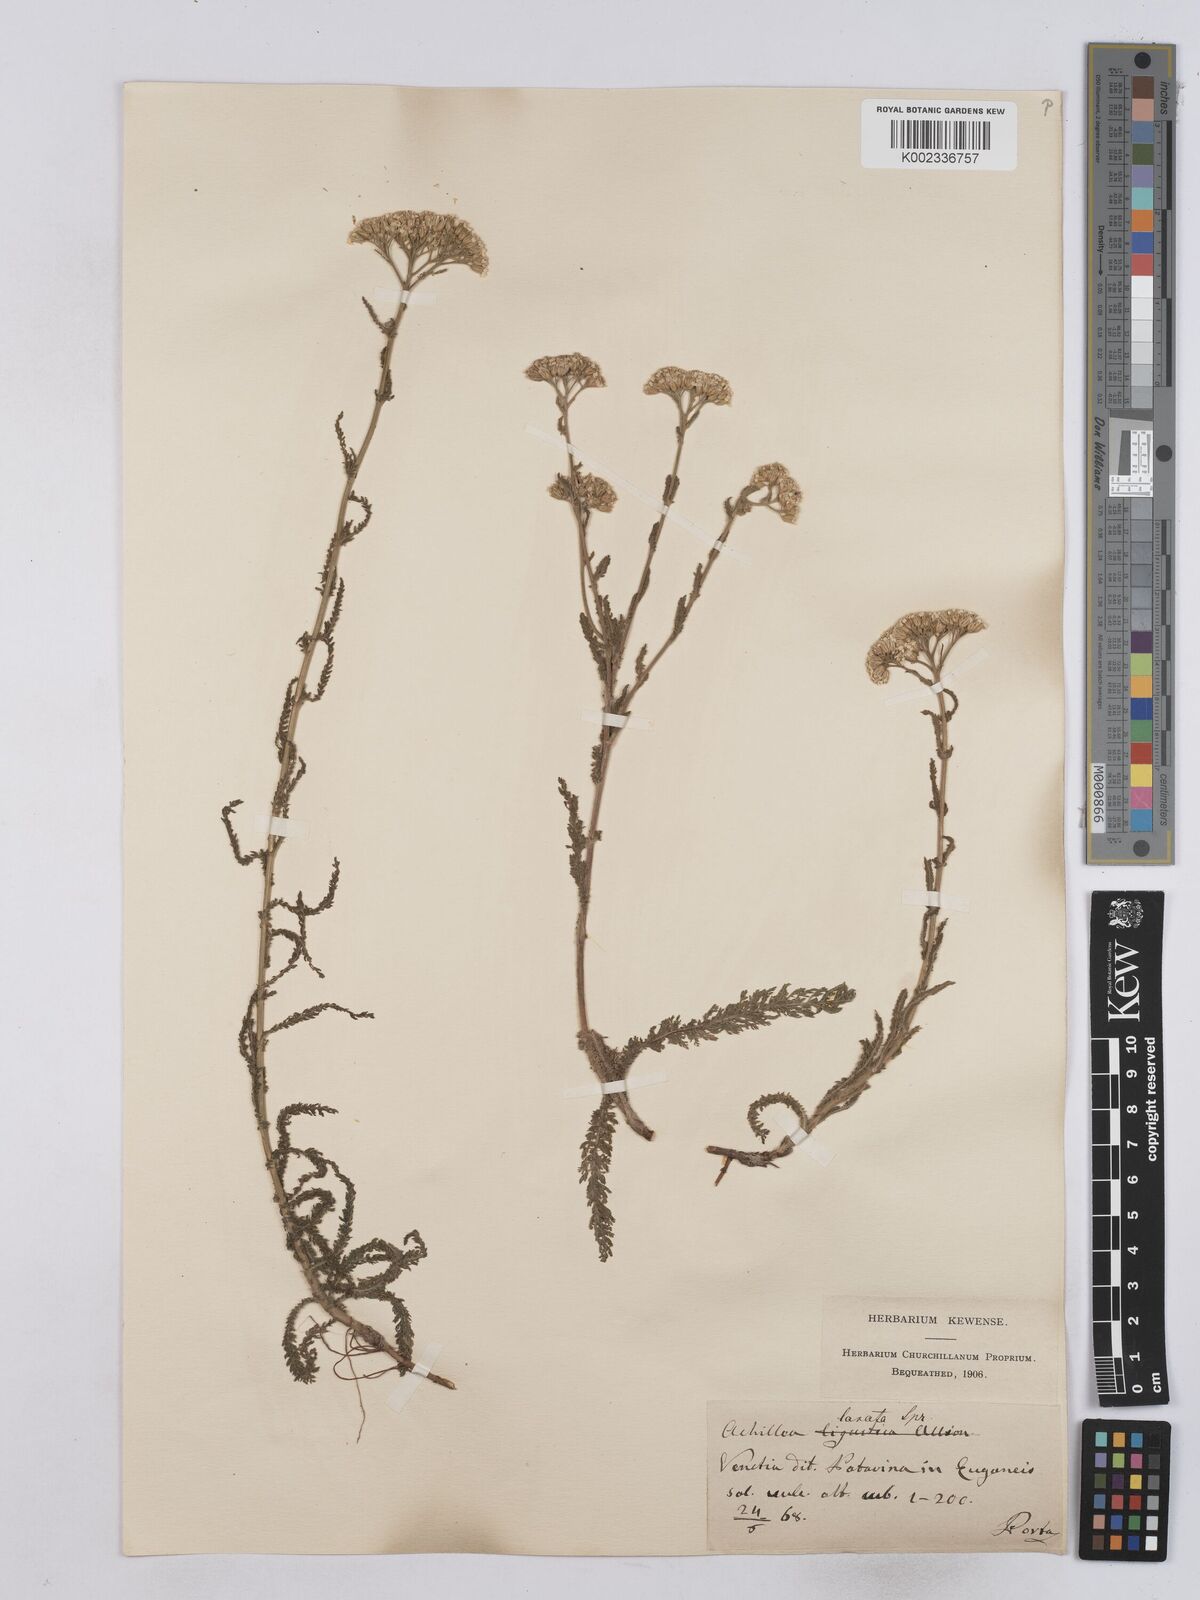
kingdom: Plantae
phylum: Tracheophyta
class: Magnoliopsida
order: Asterales
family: Asteraceae
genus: Achillea
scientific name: Achillea setacea
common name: Bristly yarrow
